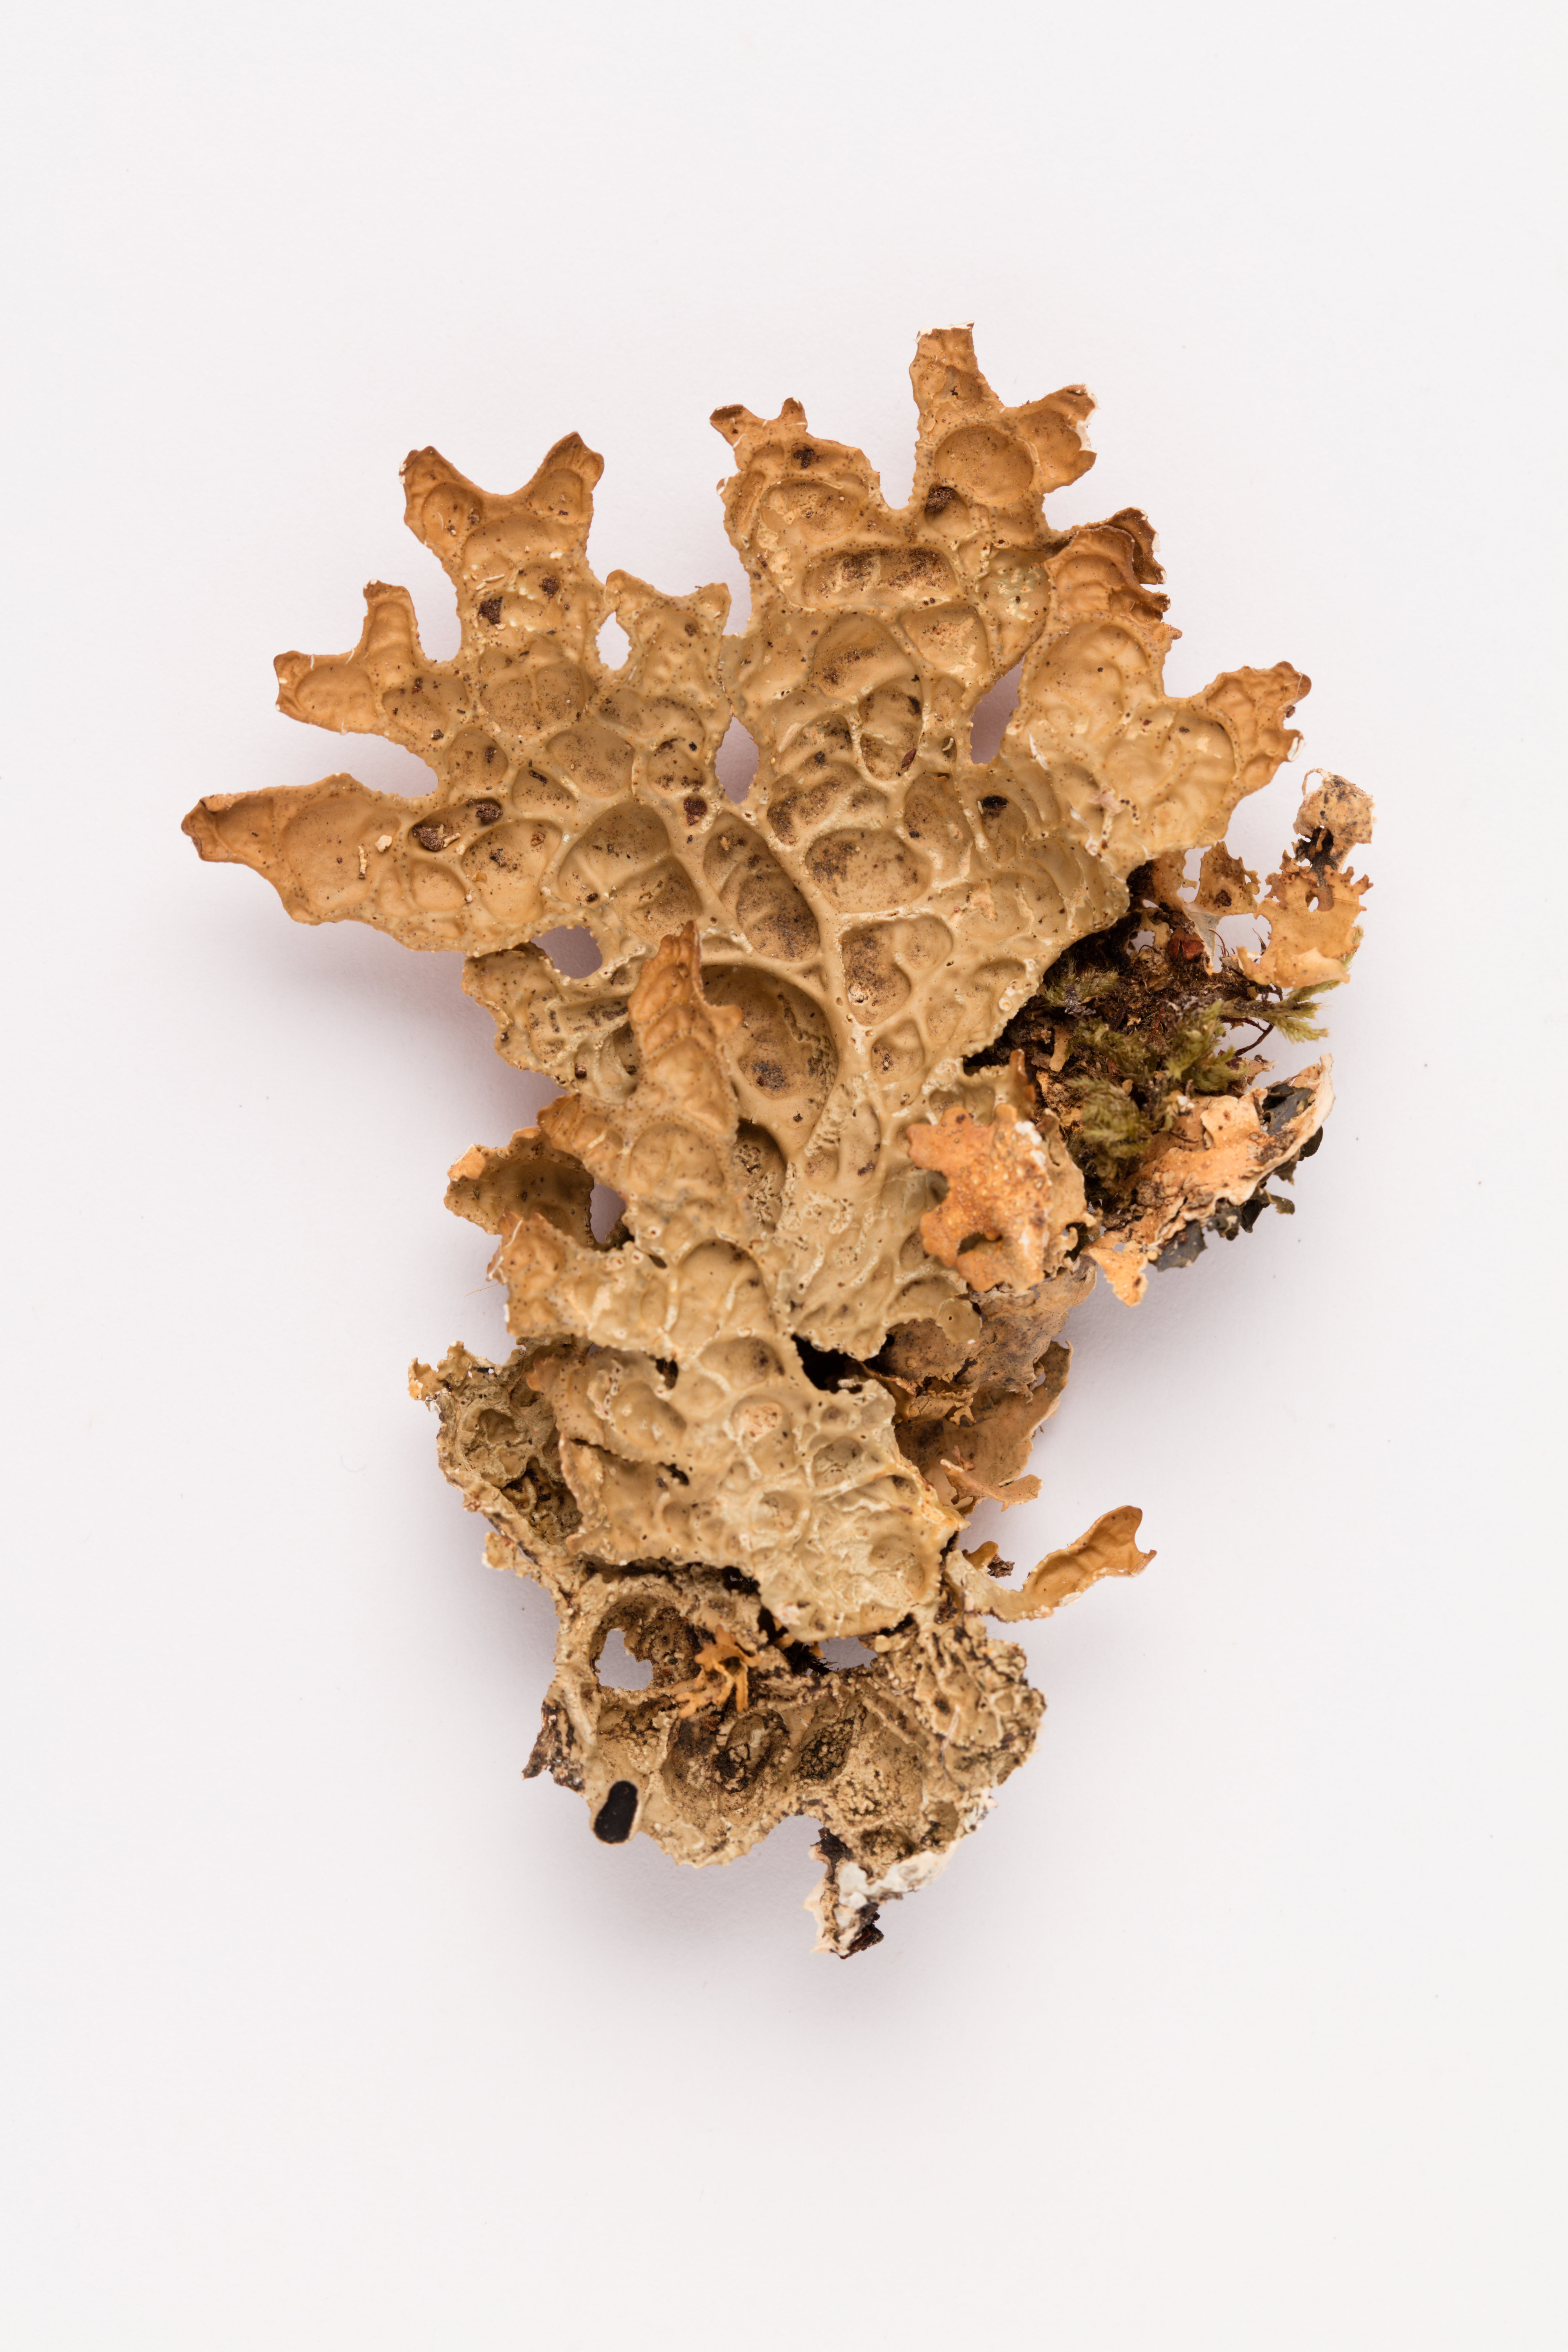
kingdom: Fungi
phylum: Ascomycota
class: Lecanoromycetes
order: Peltigerales
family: Lobariaceae
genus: Pseudocyphellaria
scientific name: Pseudocyphellaria durietzii
